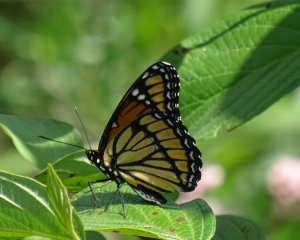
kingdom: Animalia
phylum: Arthropoda
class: Insecta
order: Lepidoptera
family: Nymphalidae
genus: Limenitis
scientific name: Limenitis archippus
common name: Viceroy
